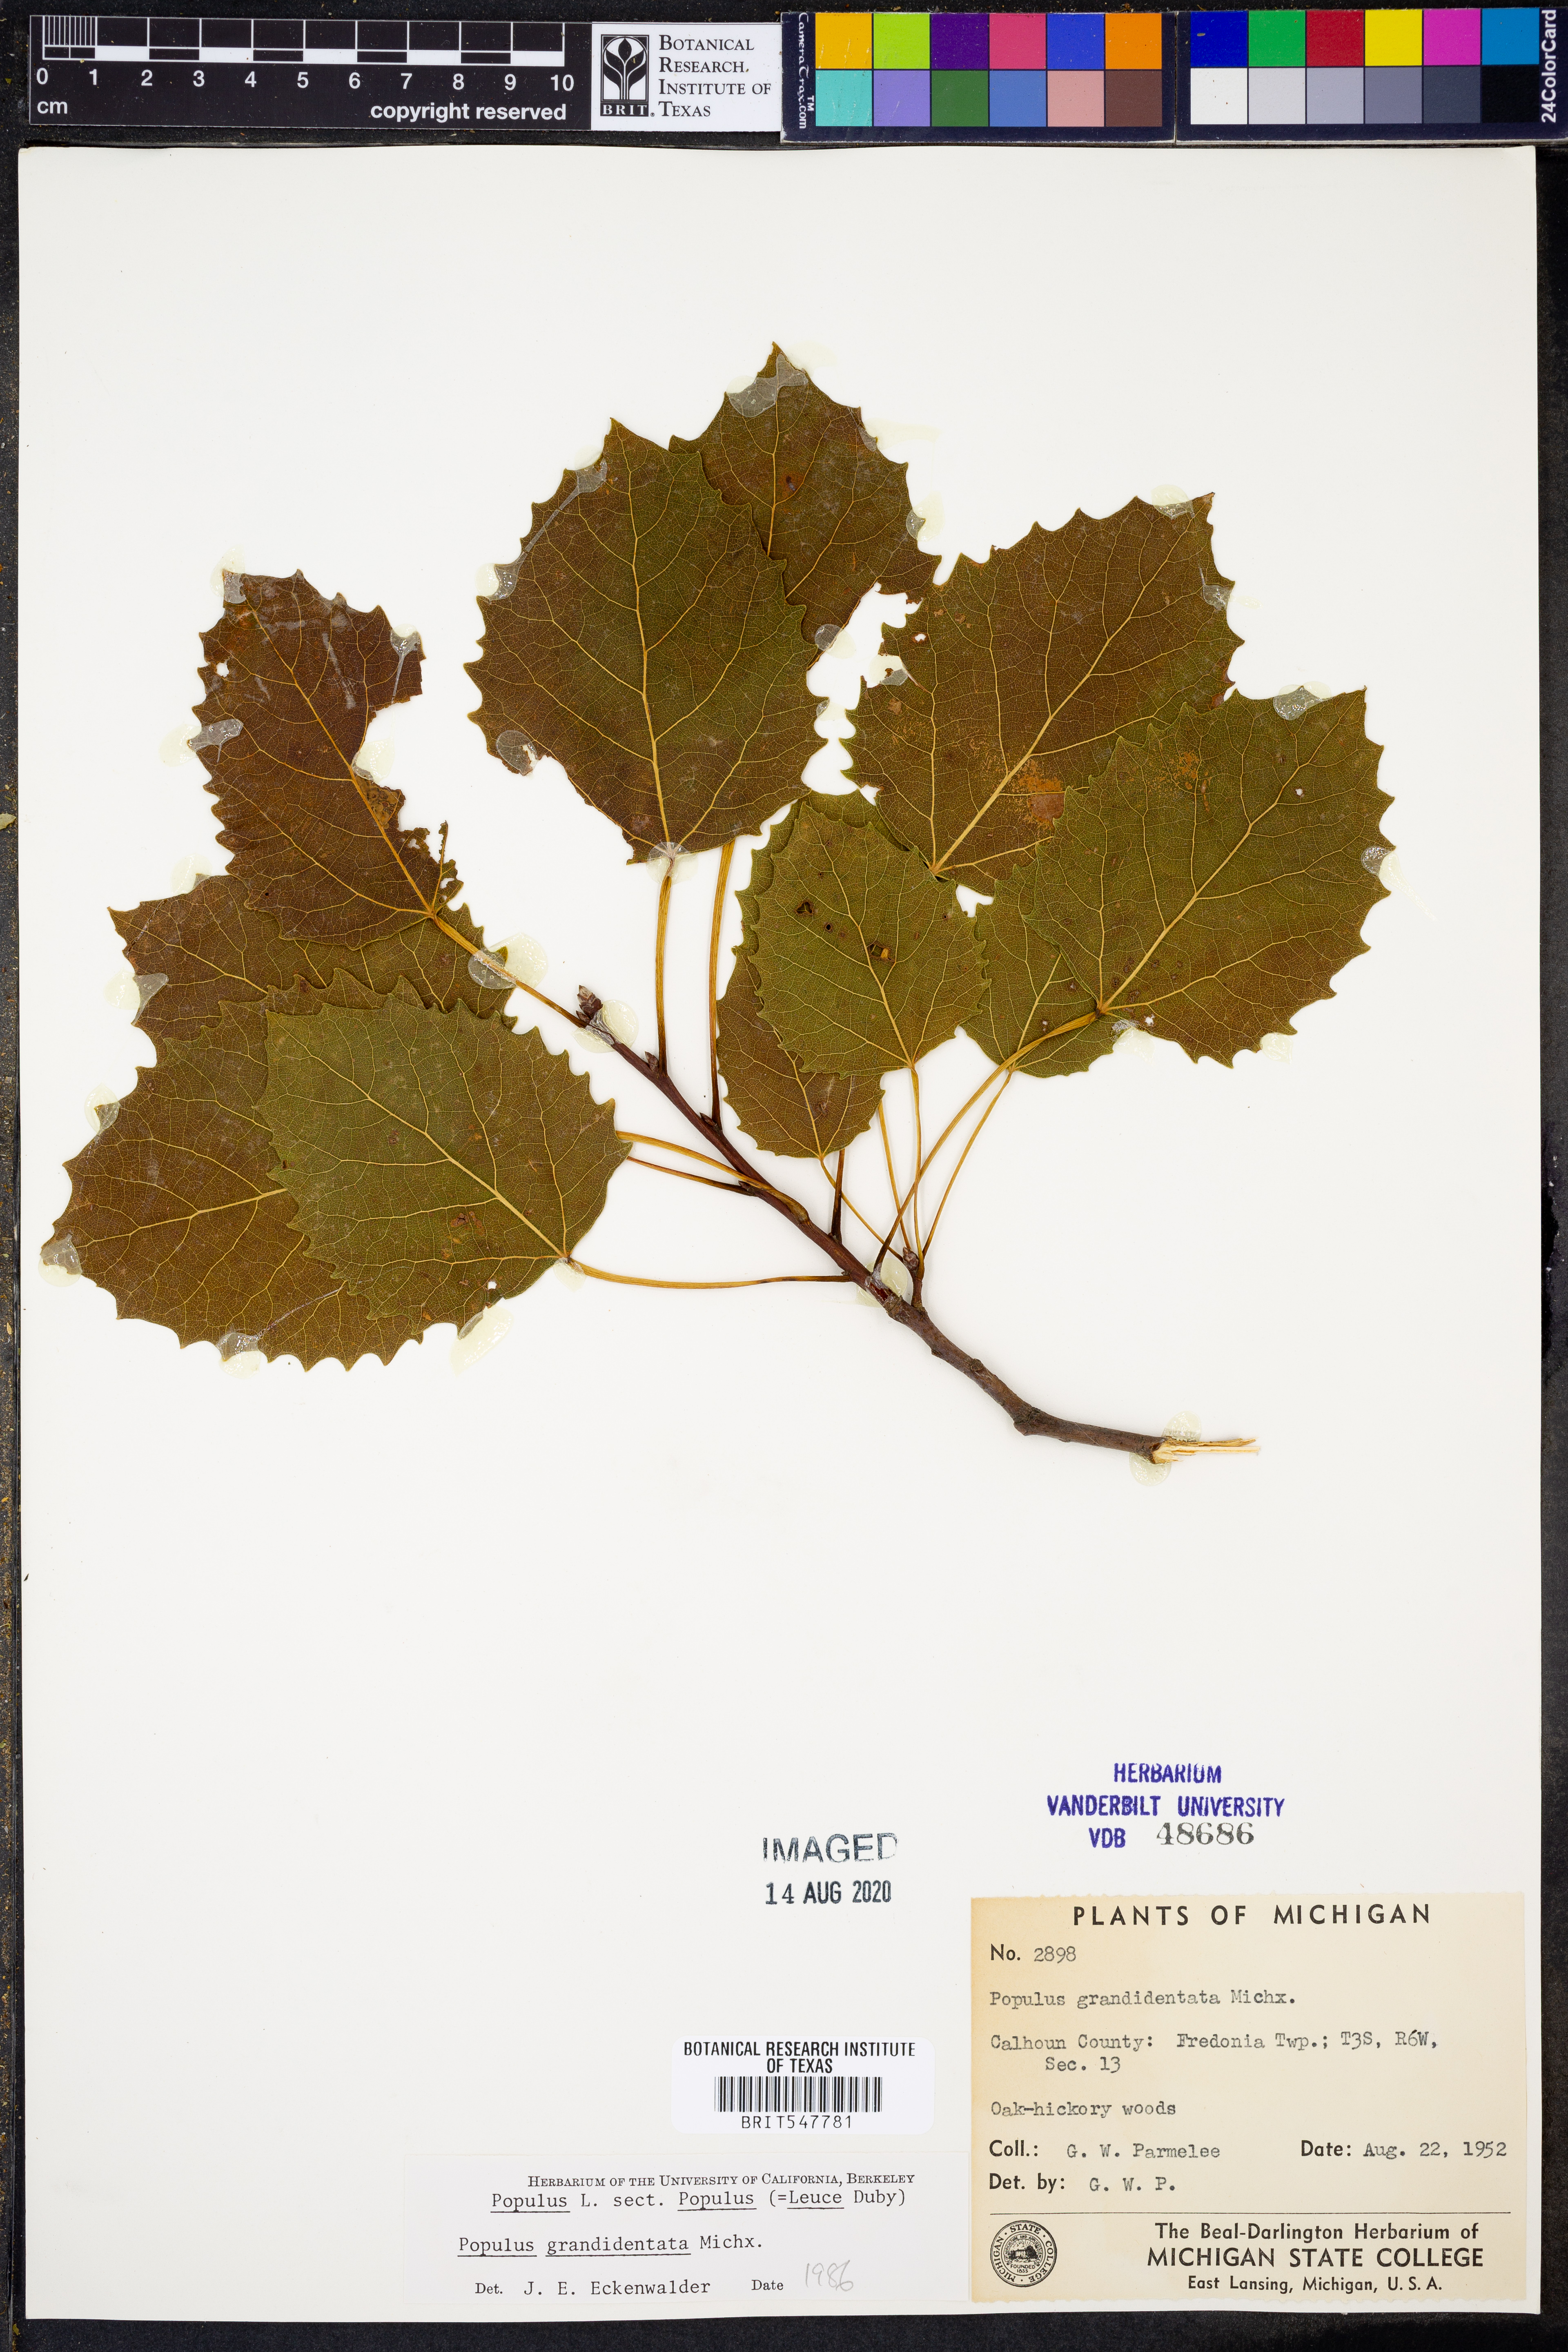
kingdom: Plantae
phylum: Tracheophyta
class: Magnoliopsida
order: Malpighiales
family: Salicaceae
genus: Populus
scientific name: Populus grandidentata
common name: Bigtooth aspen
